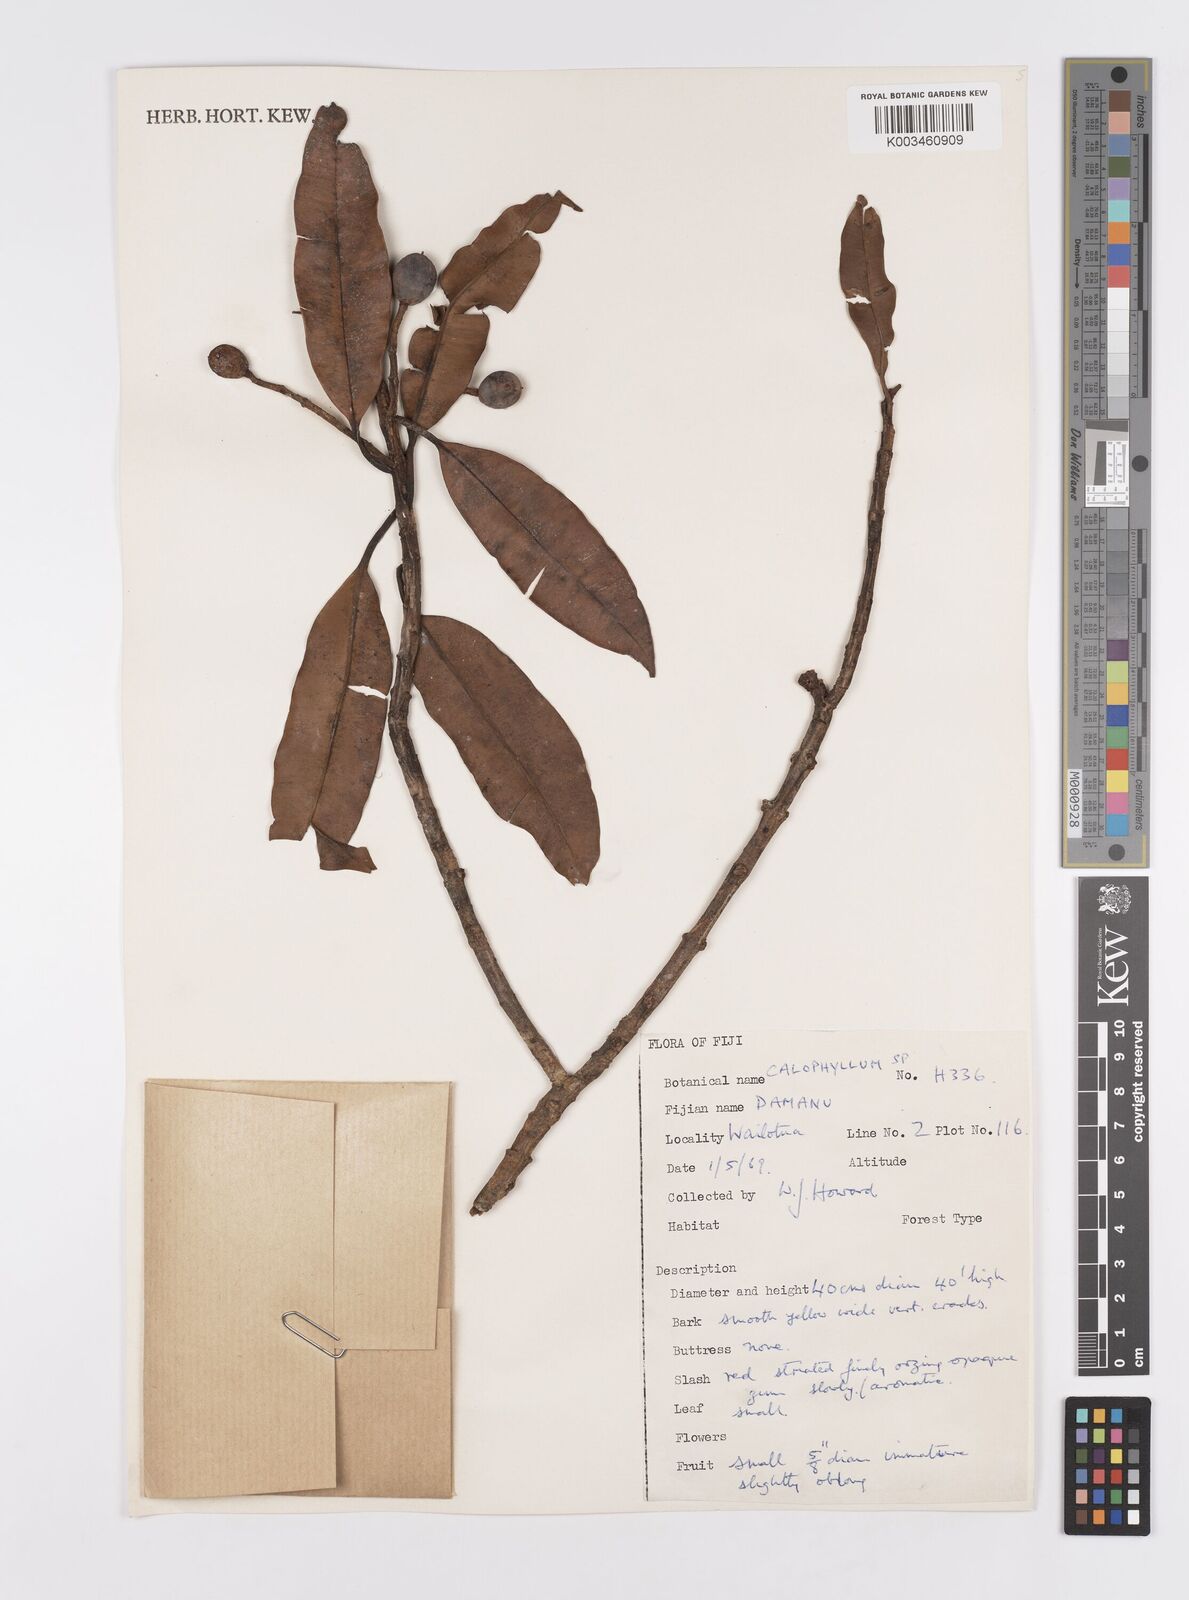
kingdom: Plantae
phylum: Tracheophyta
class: Magnoliopsida
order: Malpighiales
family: Calophyllaceae
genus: Calophyllum
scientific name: Calophyllum
